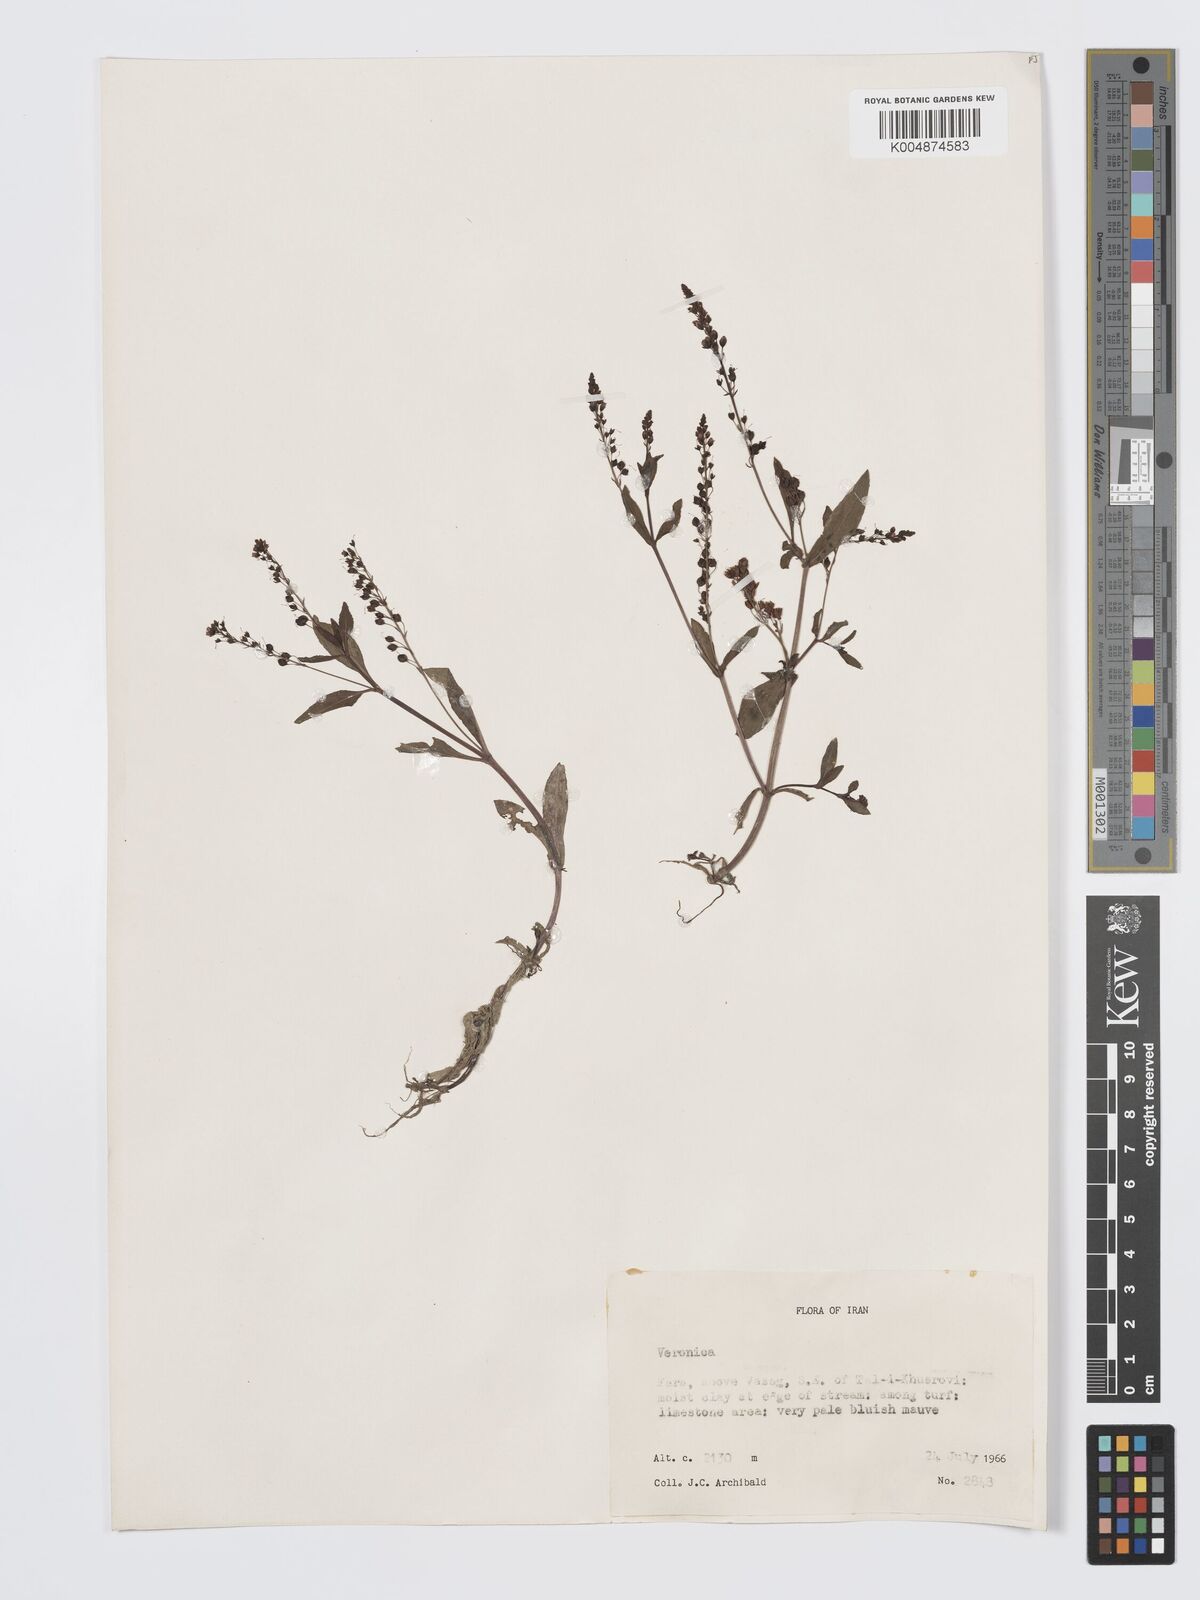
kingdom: Plantae
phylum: Tracheophyta
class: Magnoliopsida
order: Lamiales
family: Plantaginaceae
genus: Veronica
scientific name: Veronica
